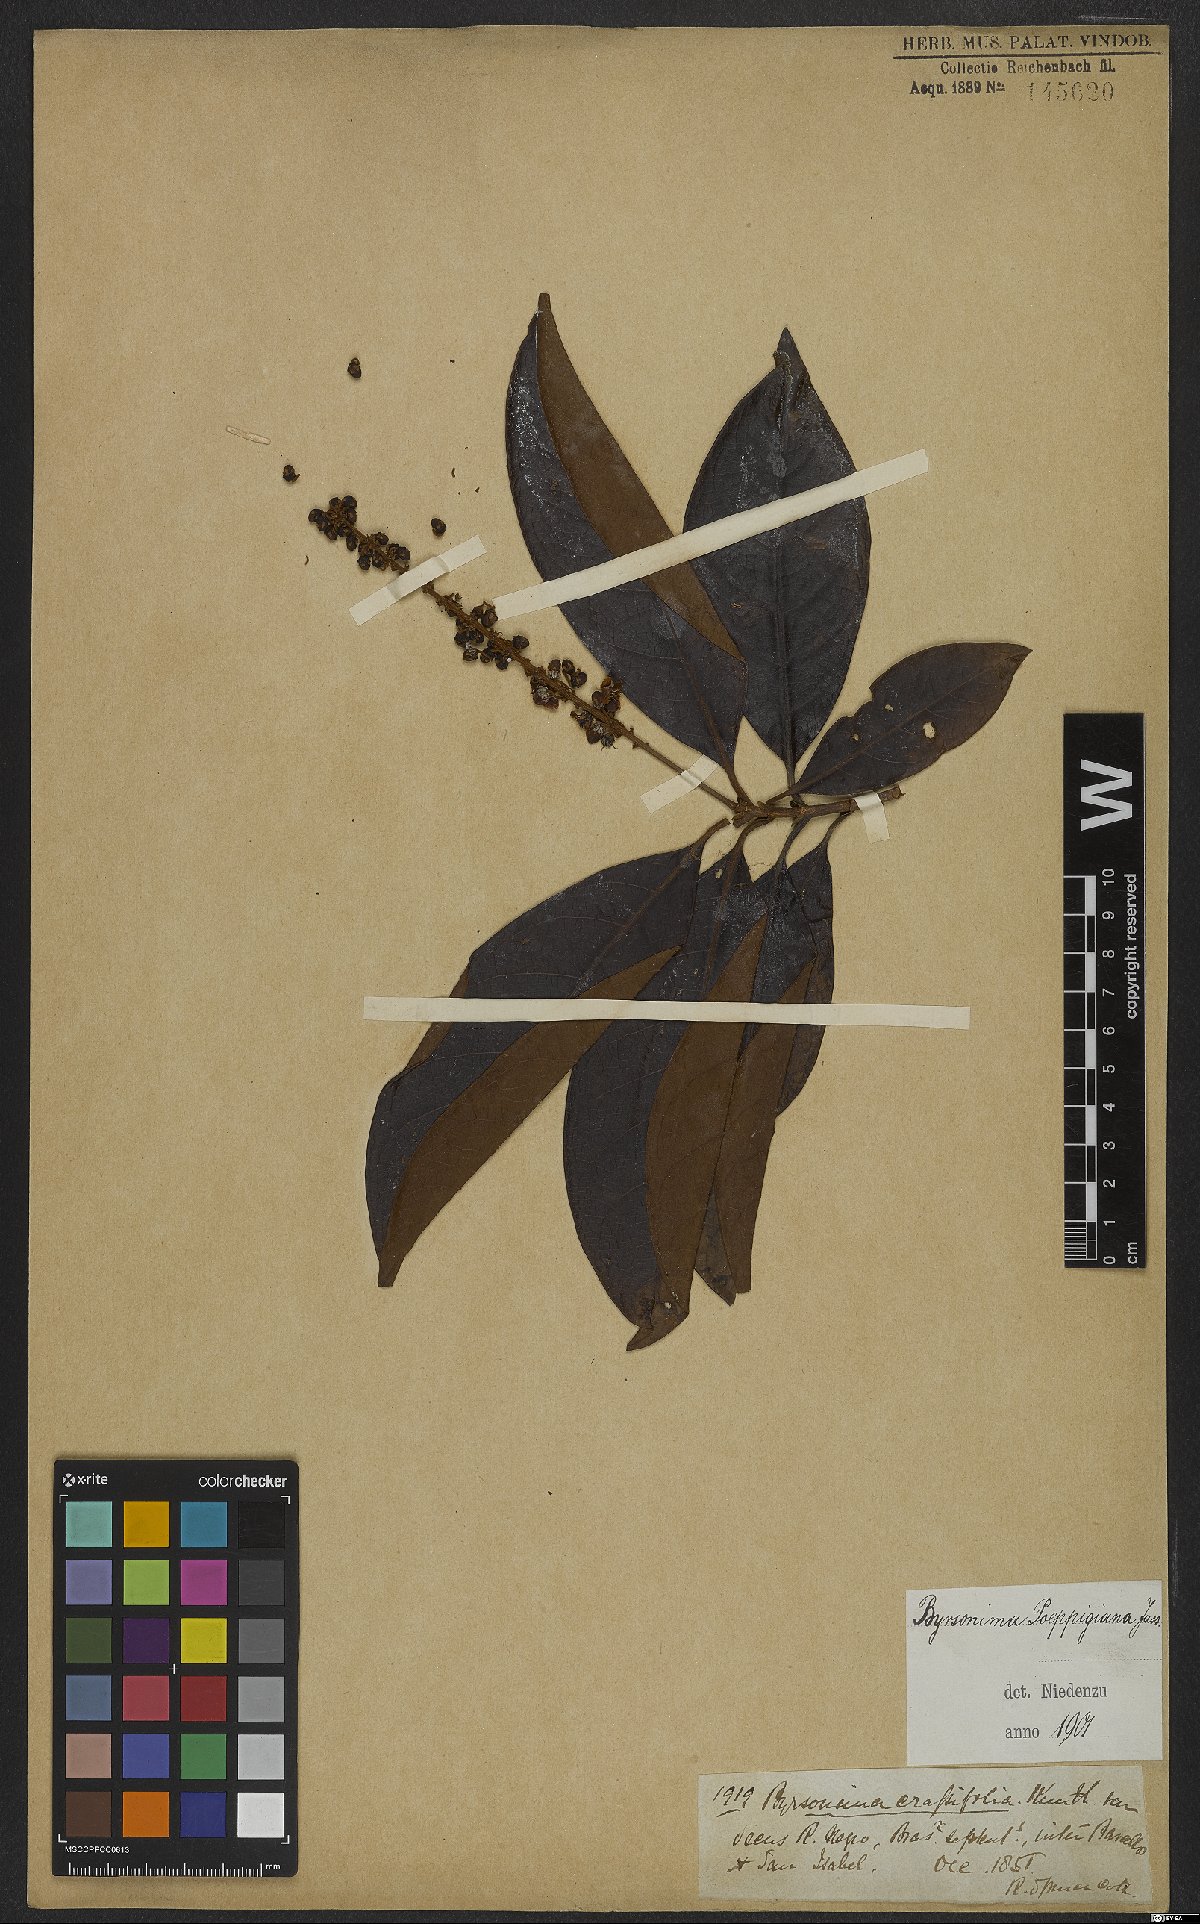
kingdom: Plantae
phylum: Tracheophyta
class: Magnoliopsida
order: Malpighiales
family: Malpighiaceae
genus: Byrsonima
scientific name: Byrsonima poeppigiana
